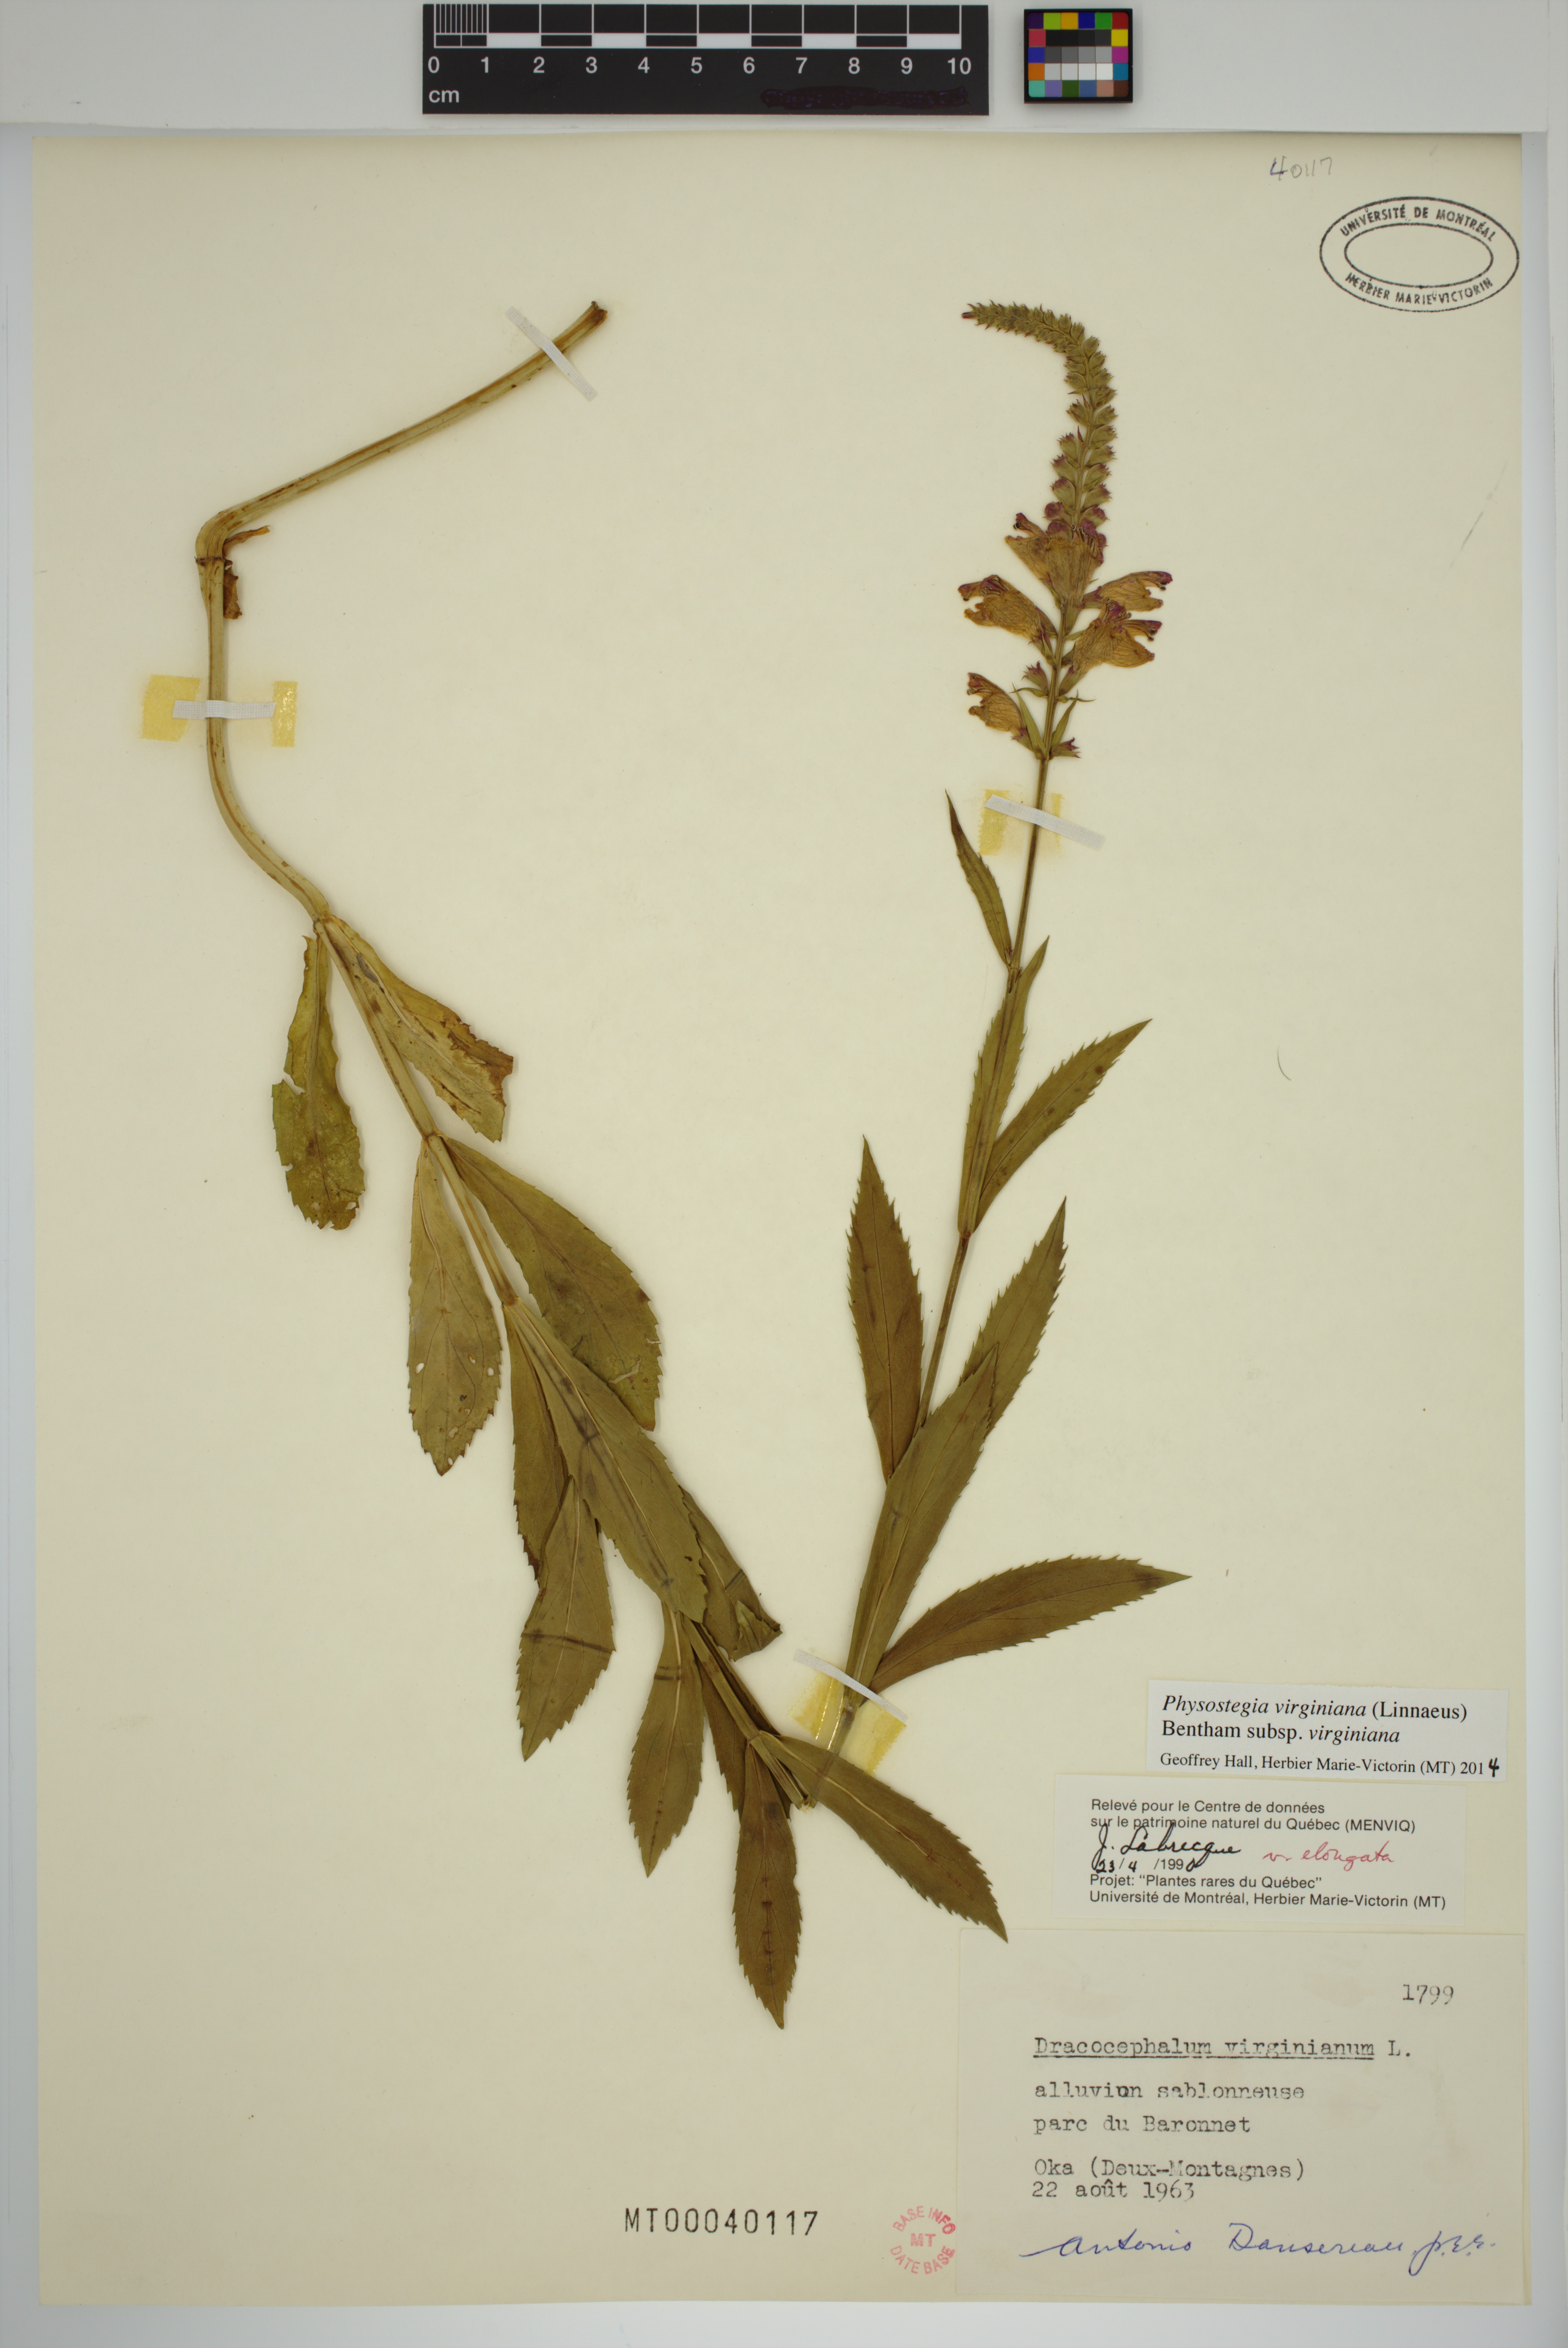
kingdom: Plantae
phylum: Tracheophyta
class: Magnoliopsida
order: Lamiales
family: Lamiaceae
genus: Physostegia
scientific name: Physostegia virginiana
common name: Obedient-plant
